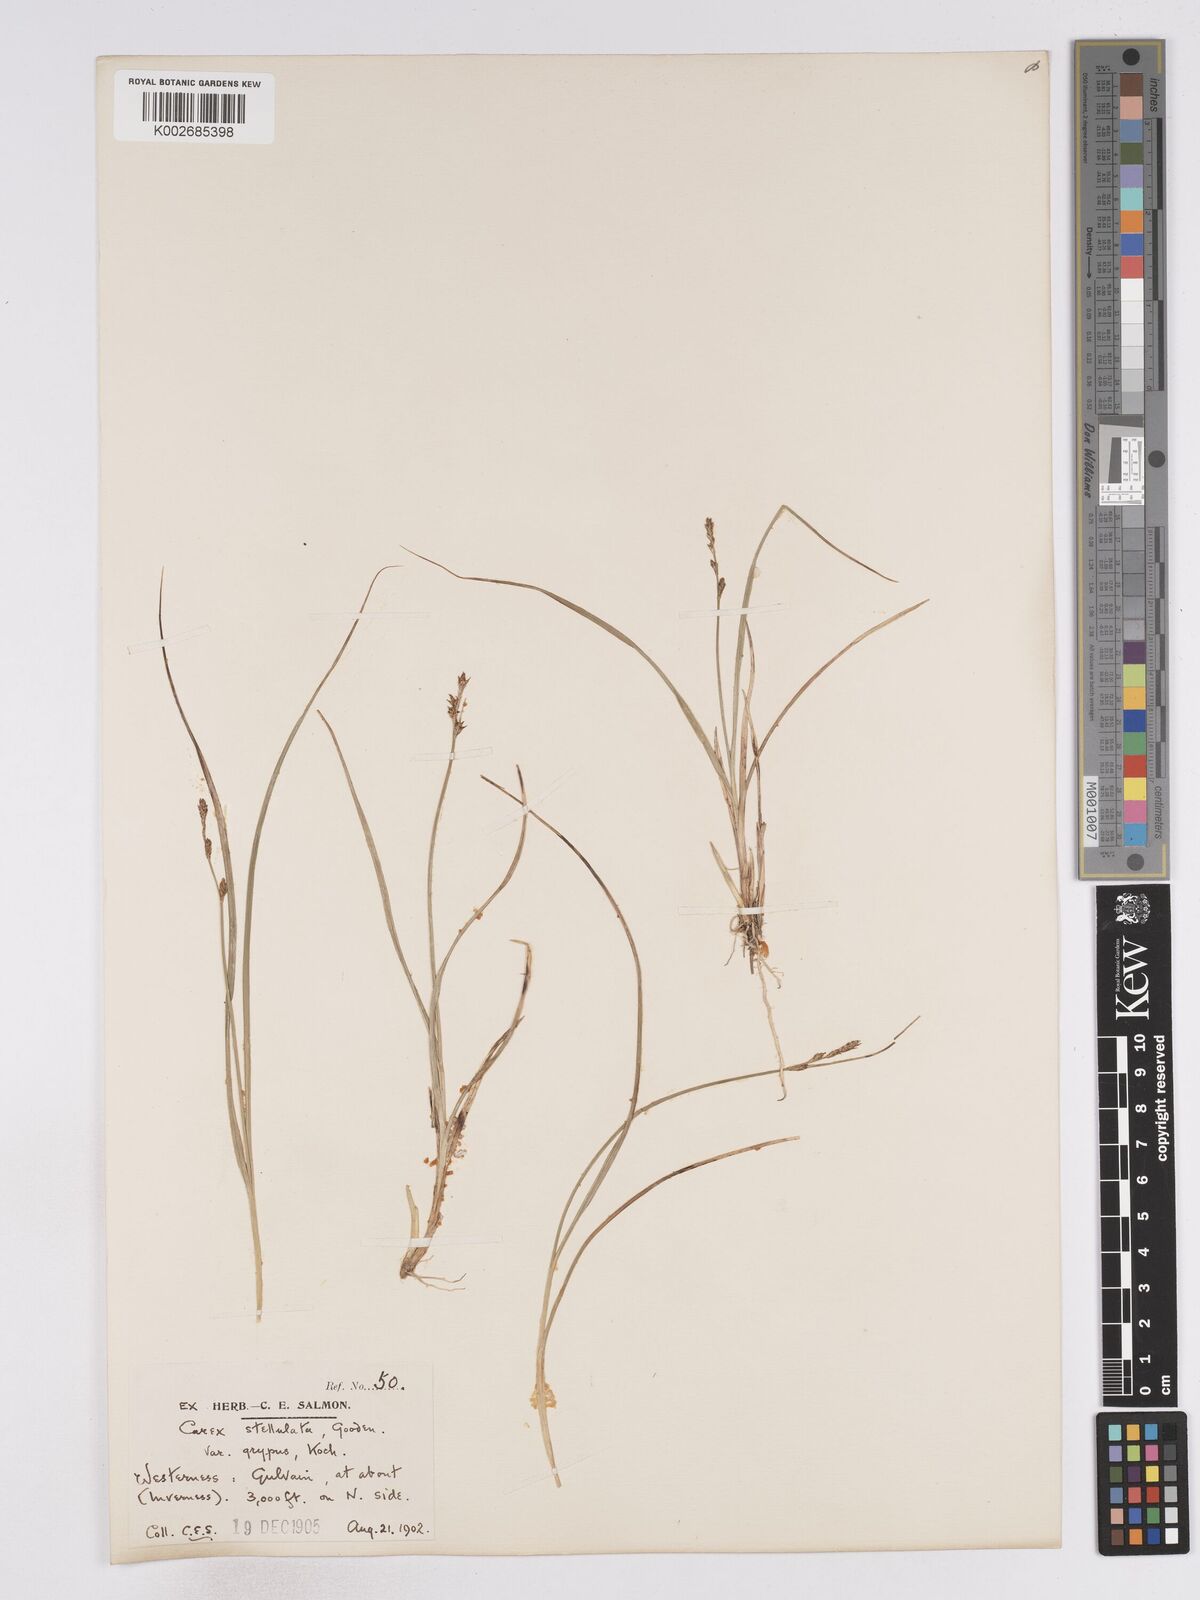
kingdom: Plantae
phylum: Tracheophyta
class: Liliopsida
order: Poales
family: Cyperaceae
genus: Carex
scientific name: Carex echinata
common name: Star sedge
